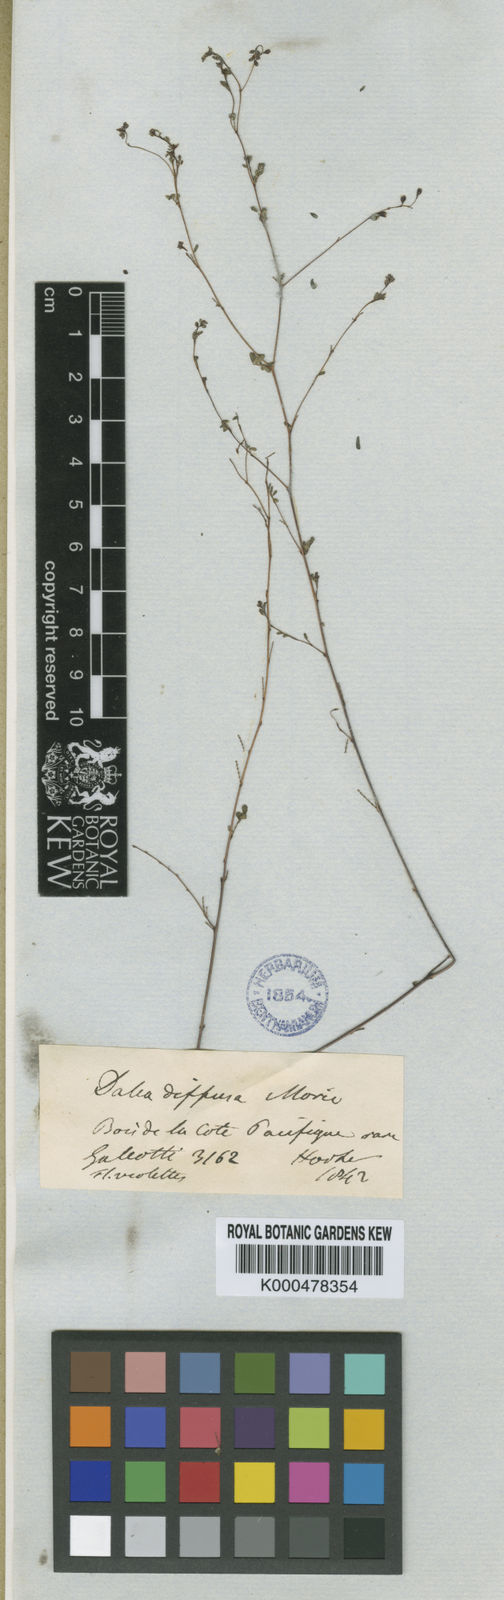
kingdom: Plantae
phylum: Tracheophyta
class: Magnoliopsida
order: Fabales
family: Fabaceae
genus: Marina
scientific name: Marina diffusa
